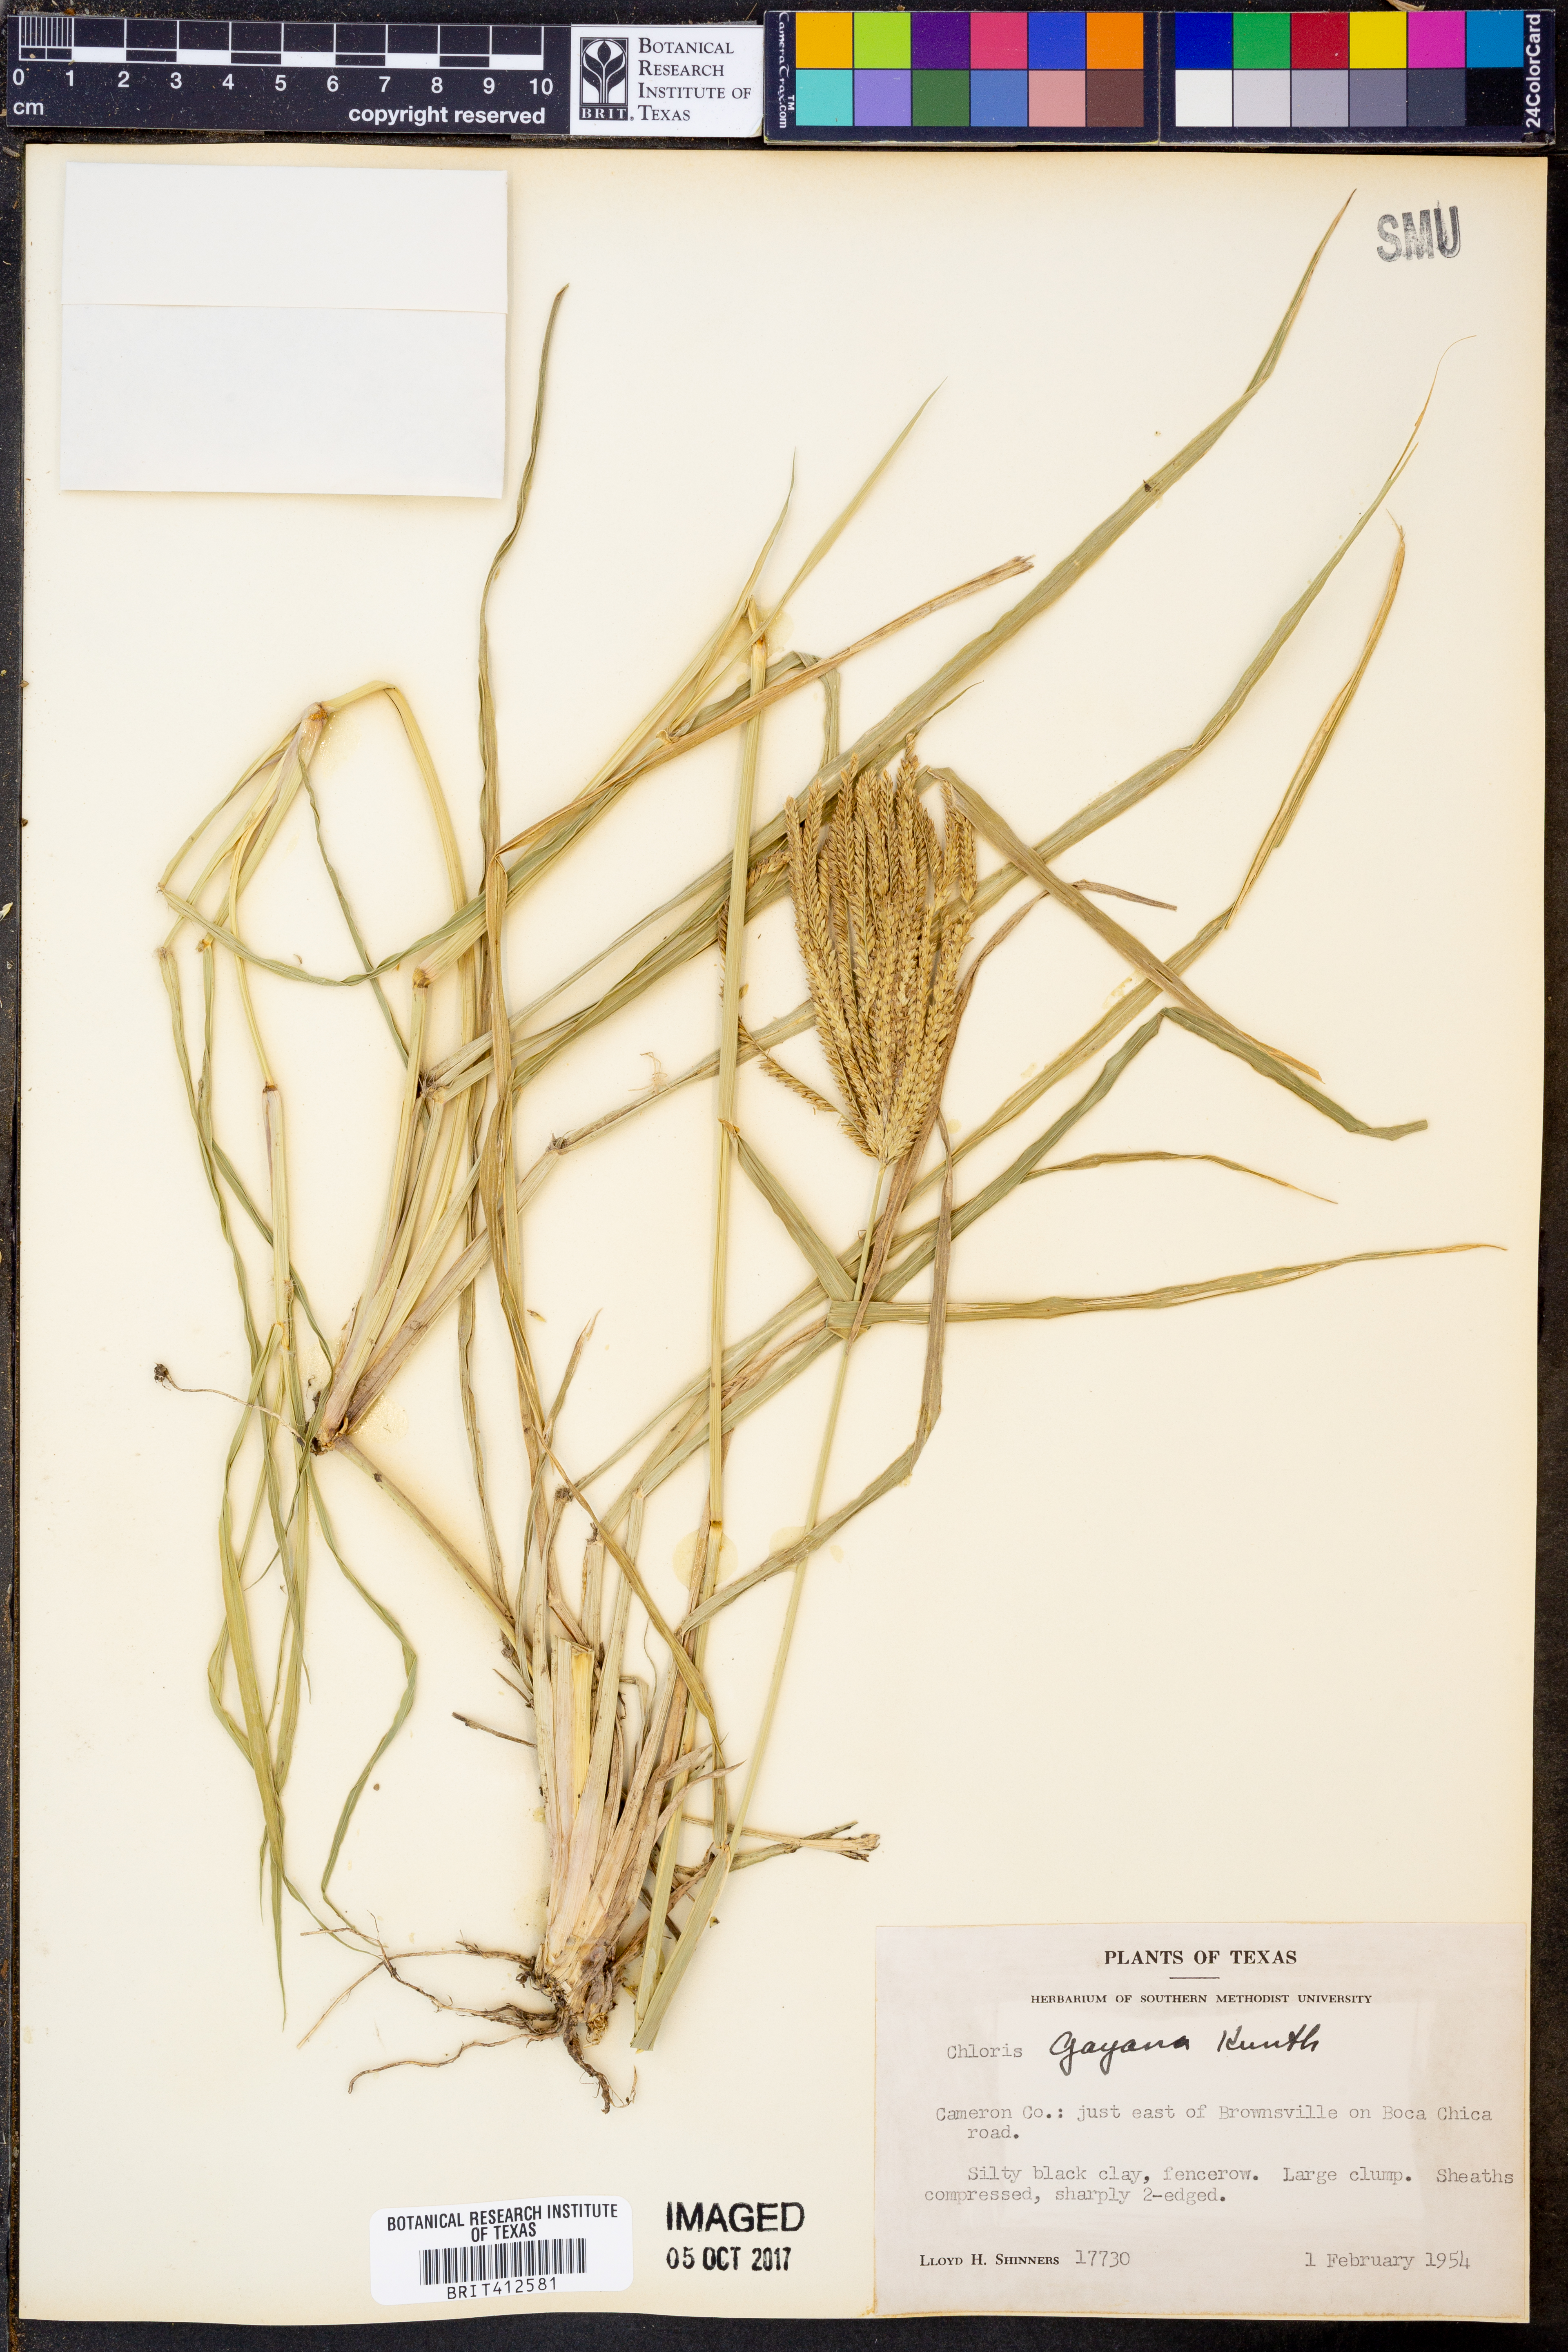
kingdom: Plantae
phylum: Tracheophyta
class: Liliopsida
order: Poales
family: Poaceae
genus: Chloris
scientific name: Chloris gayana
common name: Rhodes grass
